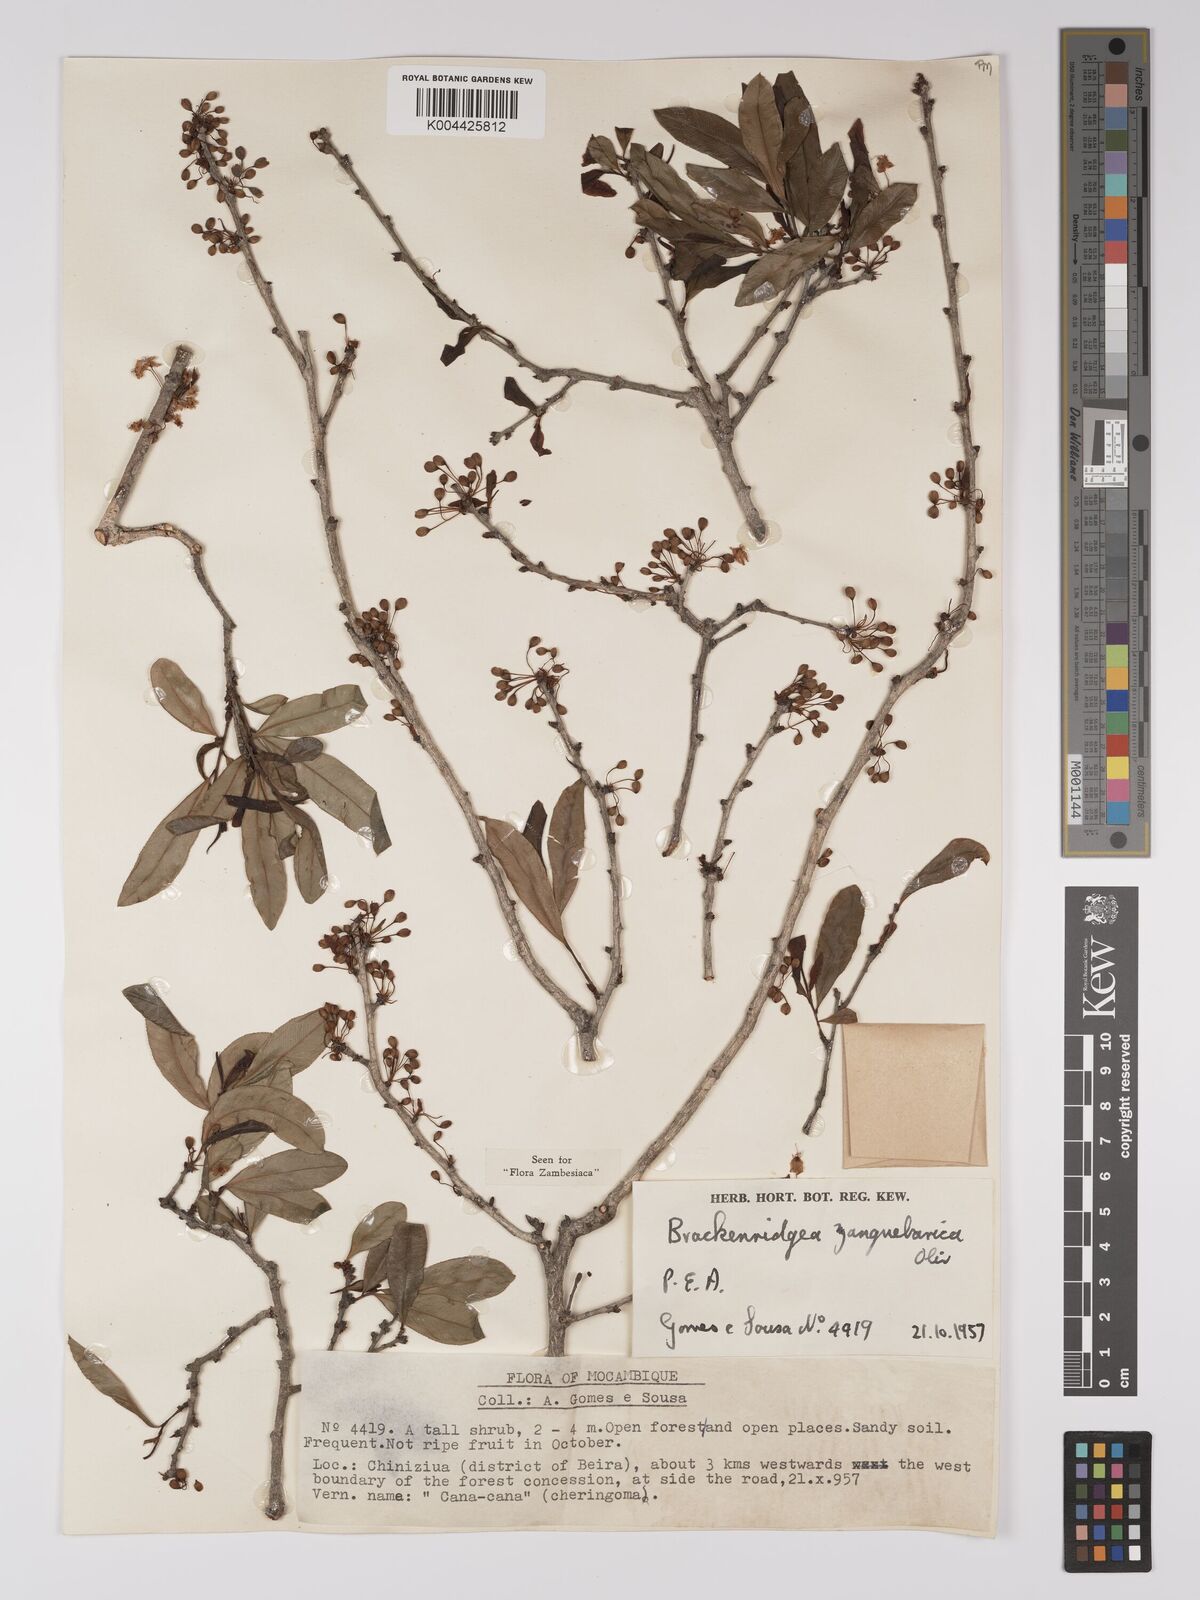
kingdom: Plantae
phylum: Tracheophyta
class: Magnoliopsida
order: Malpighiales
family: Ochnaceae
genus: Brackenridgea
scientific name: Brackenridgea zanguebarica
